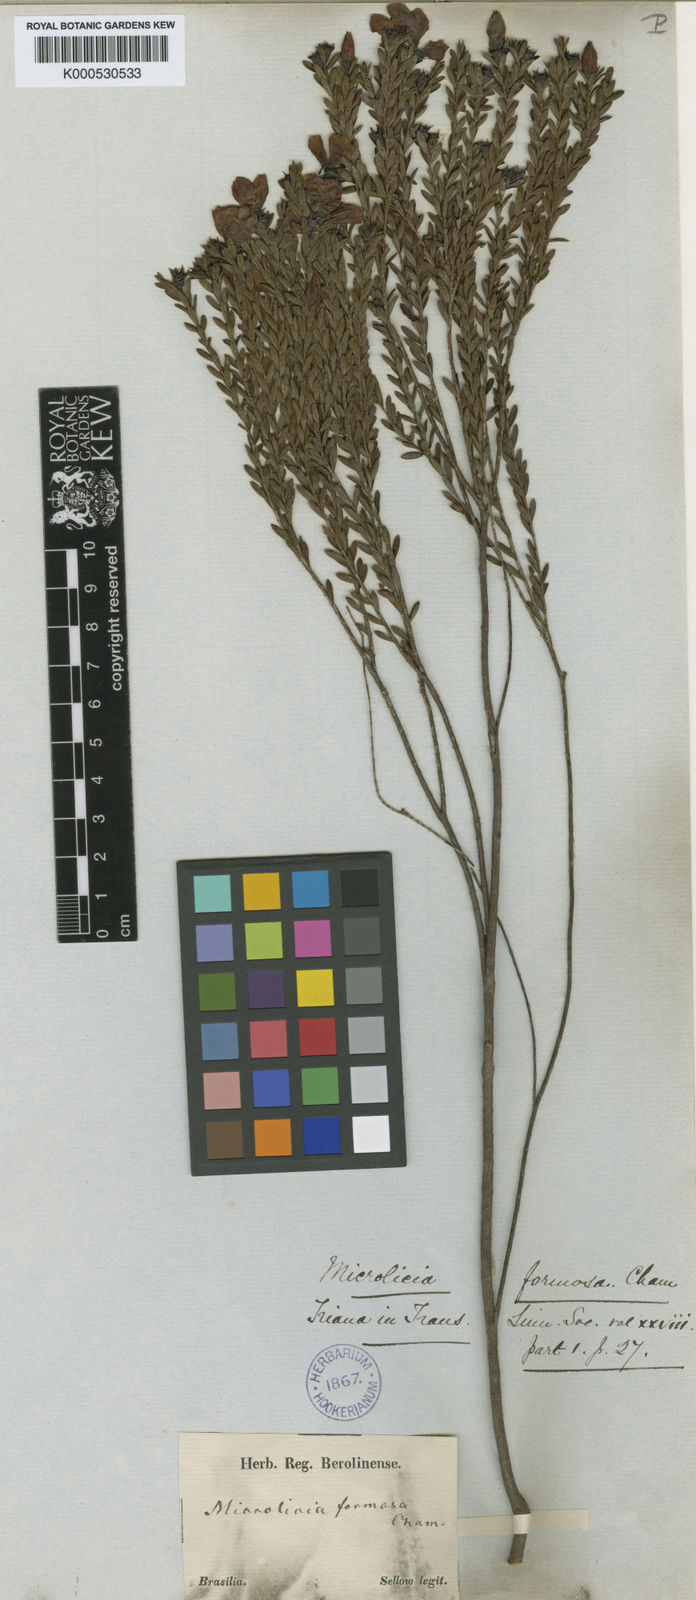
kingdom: Plantae
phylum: Tracheophyta
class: Magnoliopsida
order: Myrtales
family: Melastomataceae
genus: Microlicia
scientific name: Microlicia formosa
